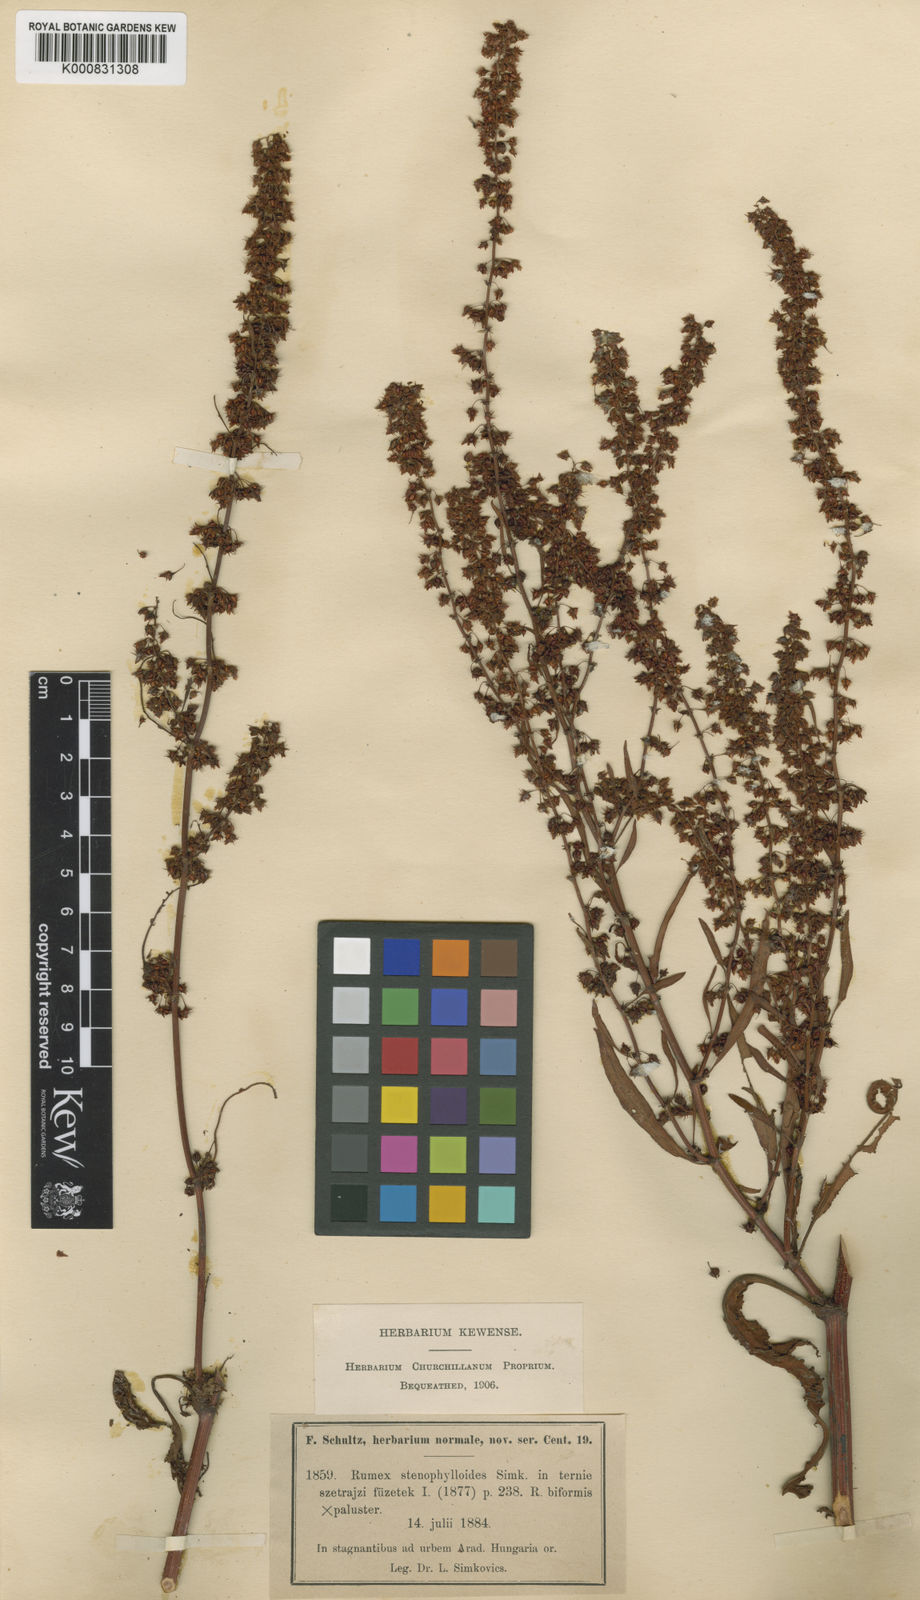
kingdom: Plantae
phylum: Tracheophyta
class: Magnoliopsida
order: Caryophyllales
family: Polygonaceae
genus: Rumex
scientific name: Rumex stenophylloides
